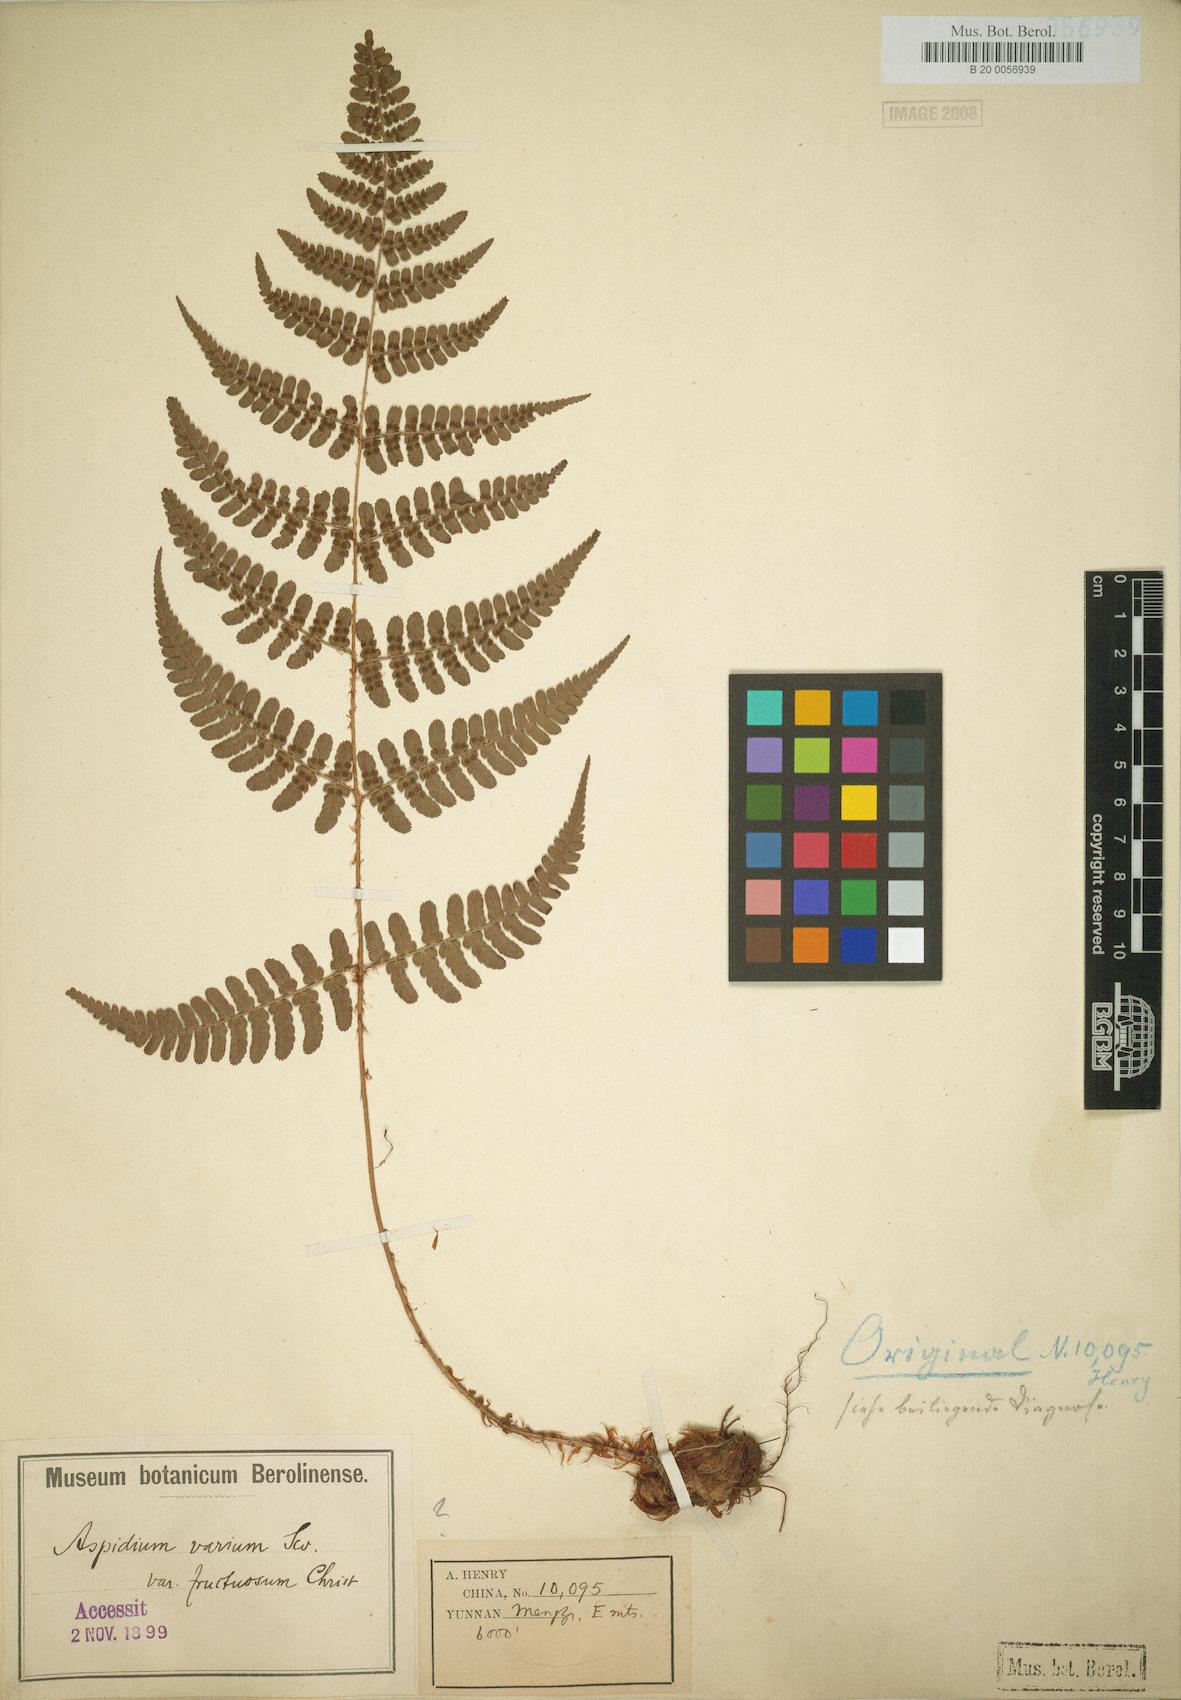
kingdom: Plantae
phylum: Tracheophyta
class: Polypodiopsida
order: Polypodiales
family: Dryopteridaceae
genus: Dryopteris
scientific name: Dryopteris fructuosa
